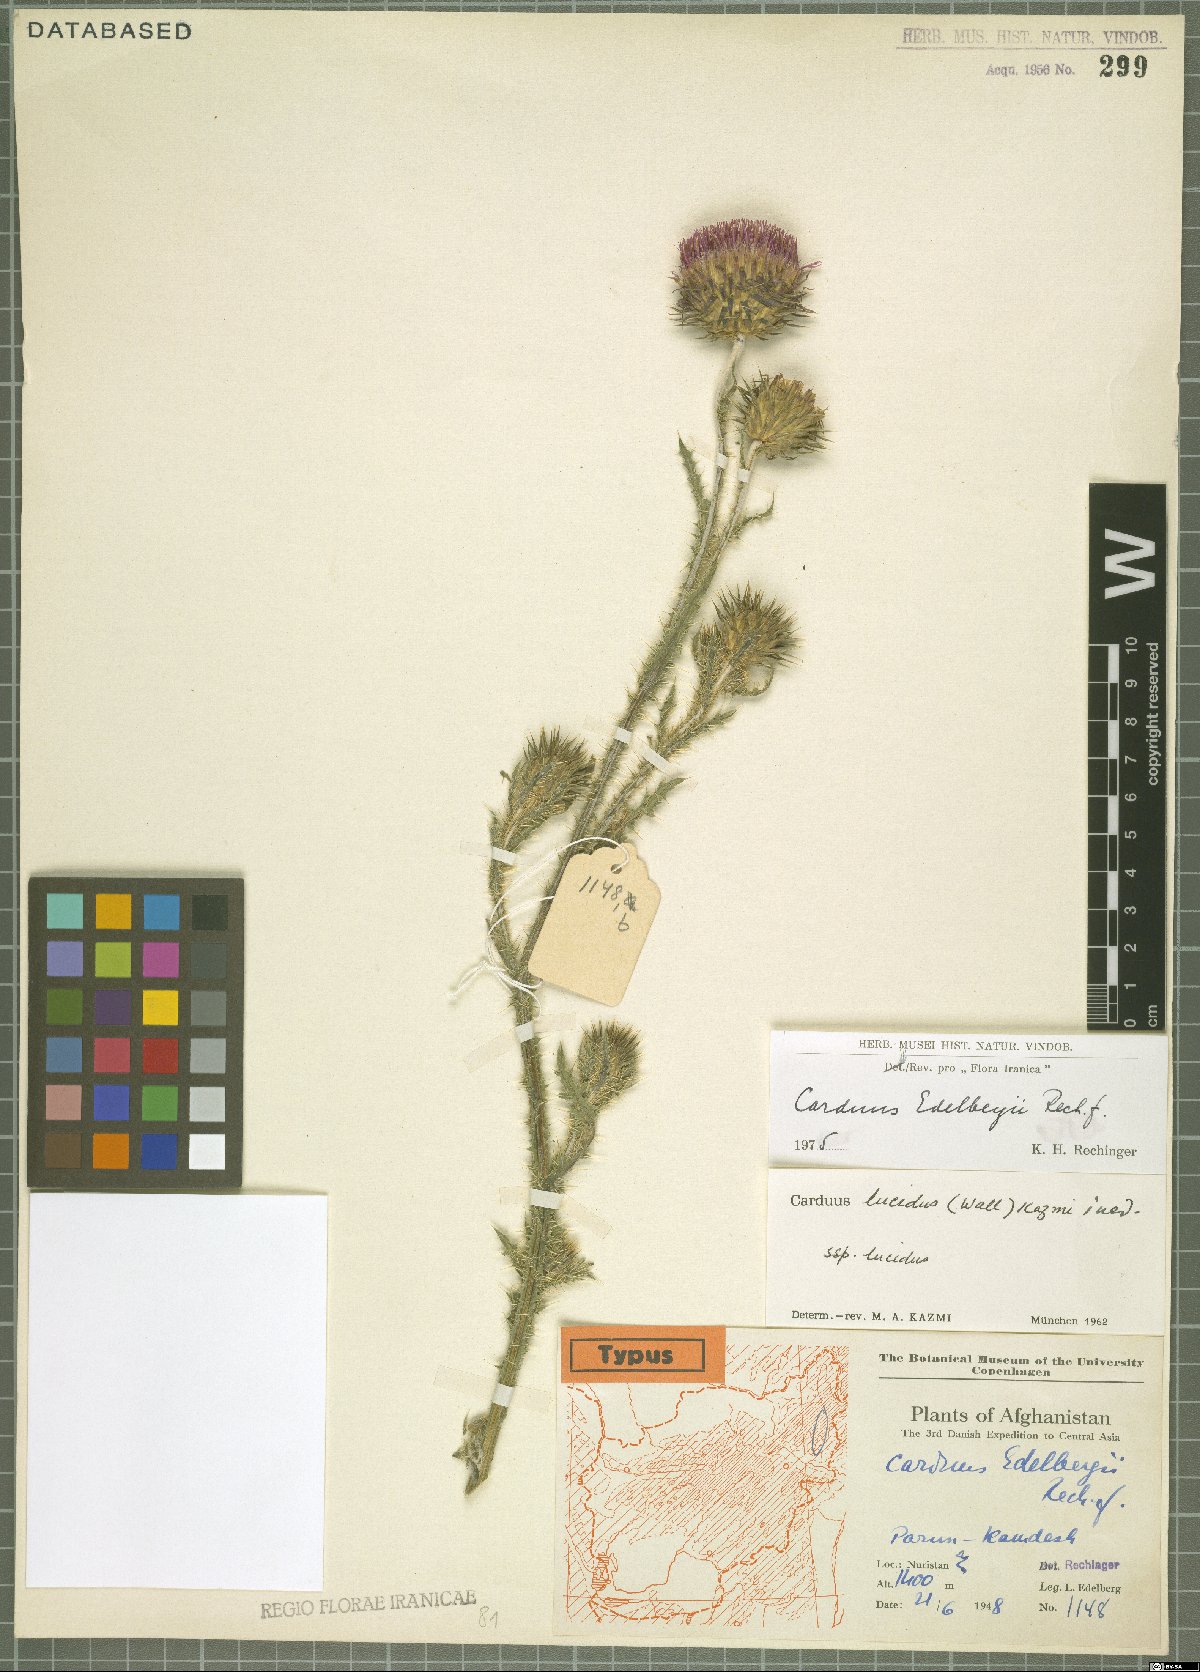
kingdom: Plantae
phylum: Tracheophyta
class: Magnoliopsida
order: Asterales
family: Asteraceae
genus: Carduus
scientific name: Carduus edelbergii
